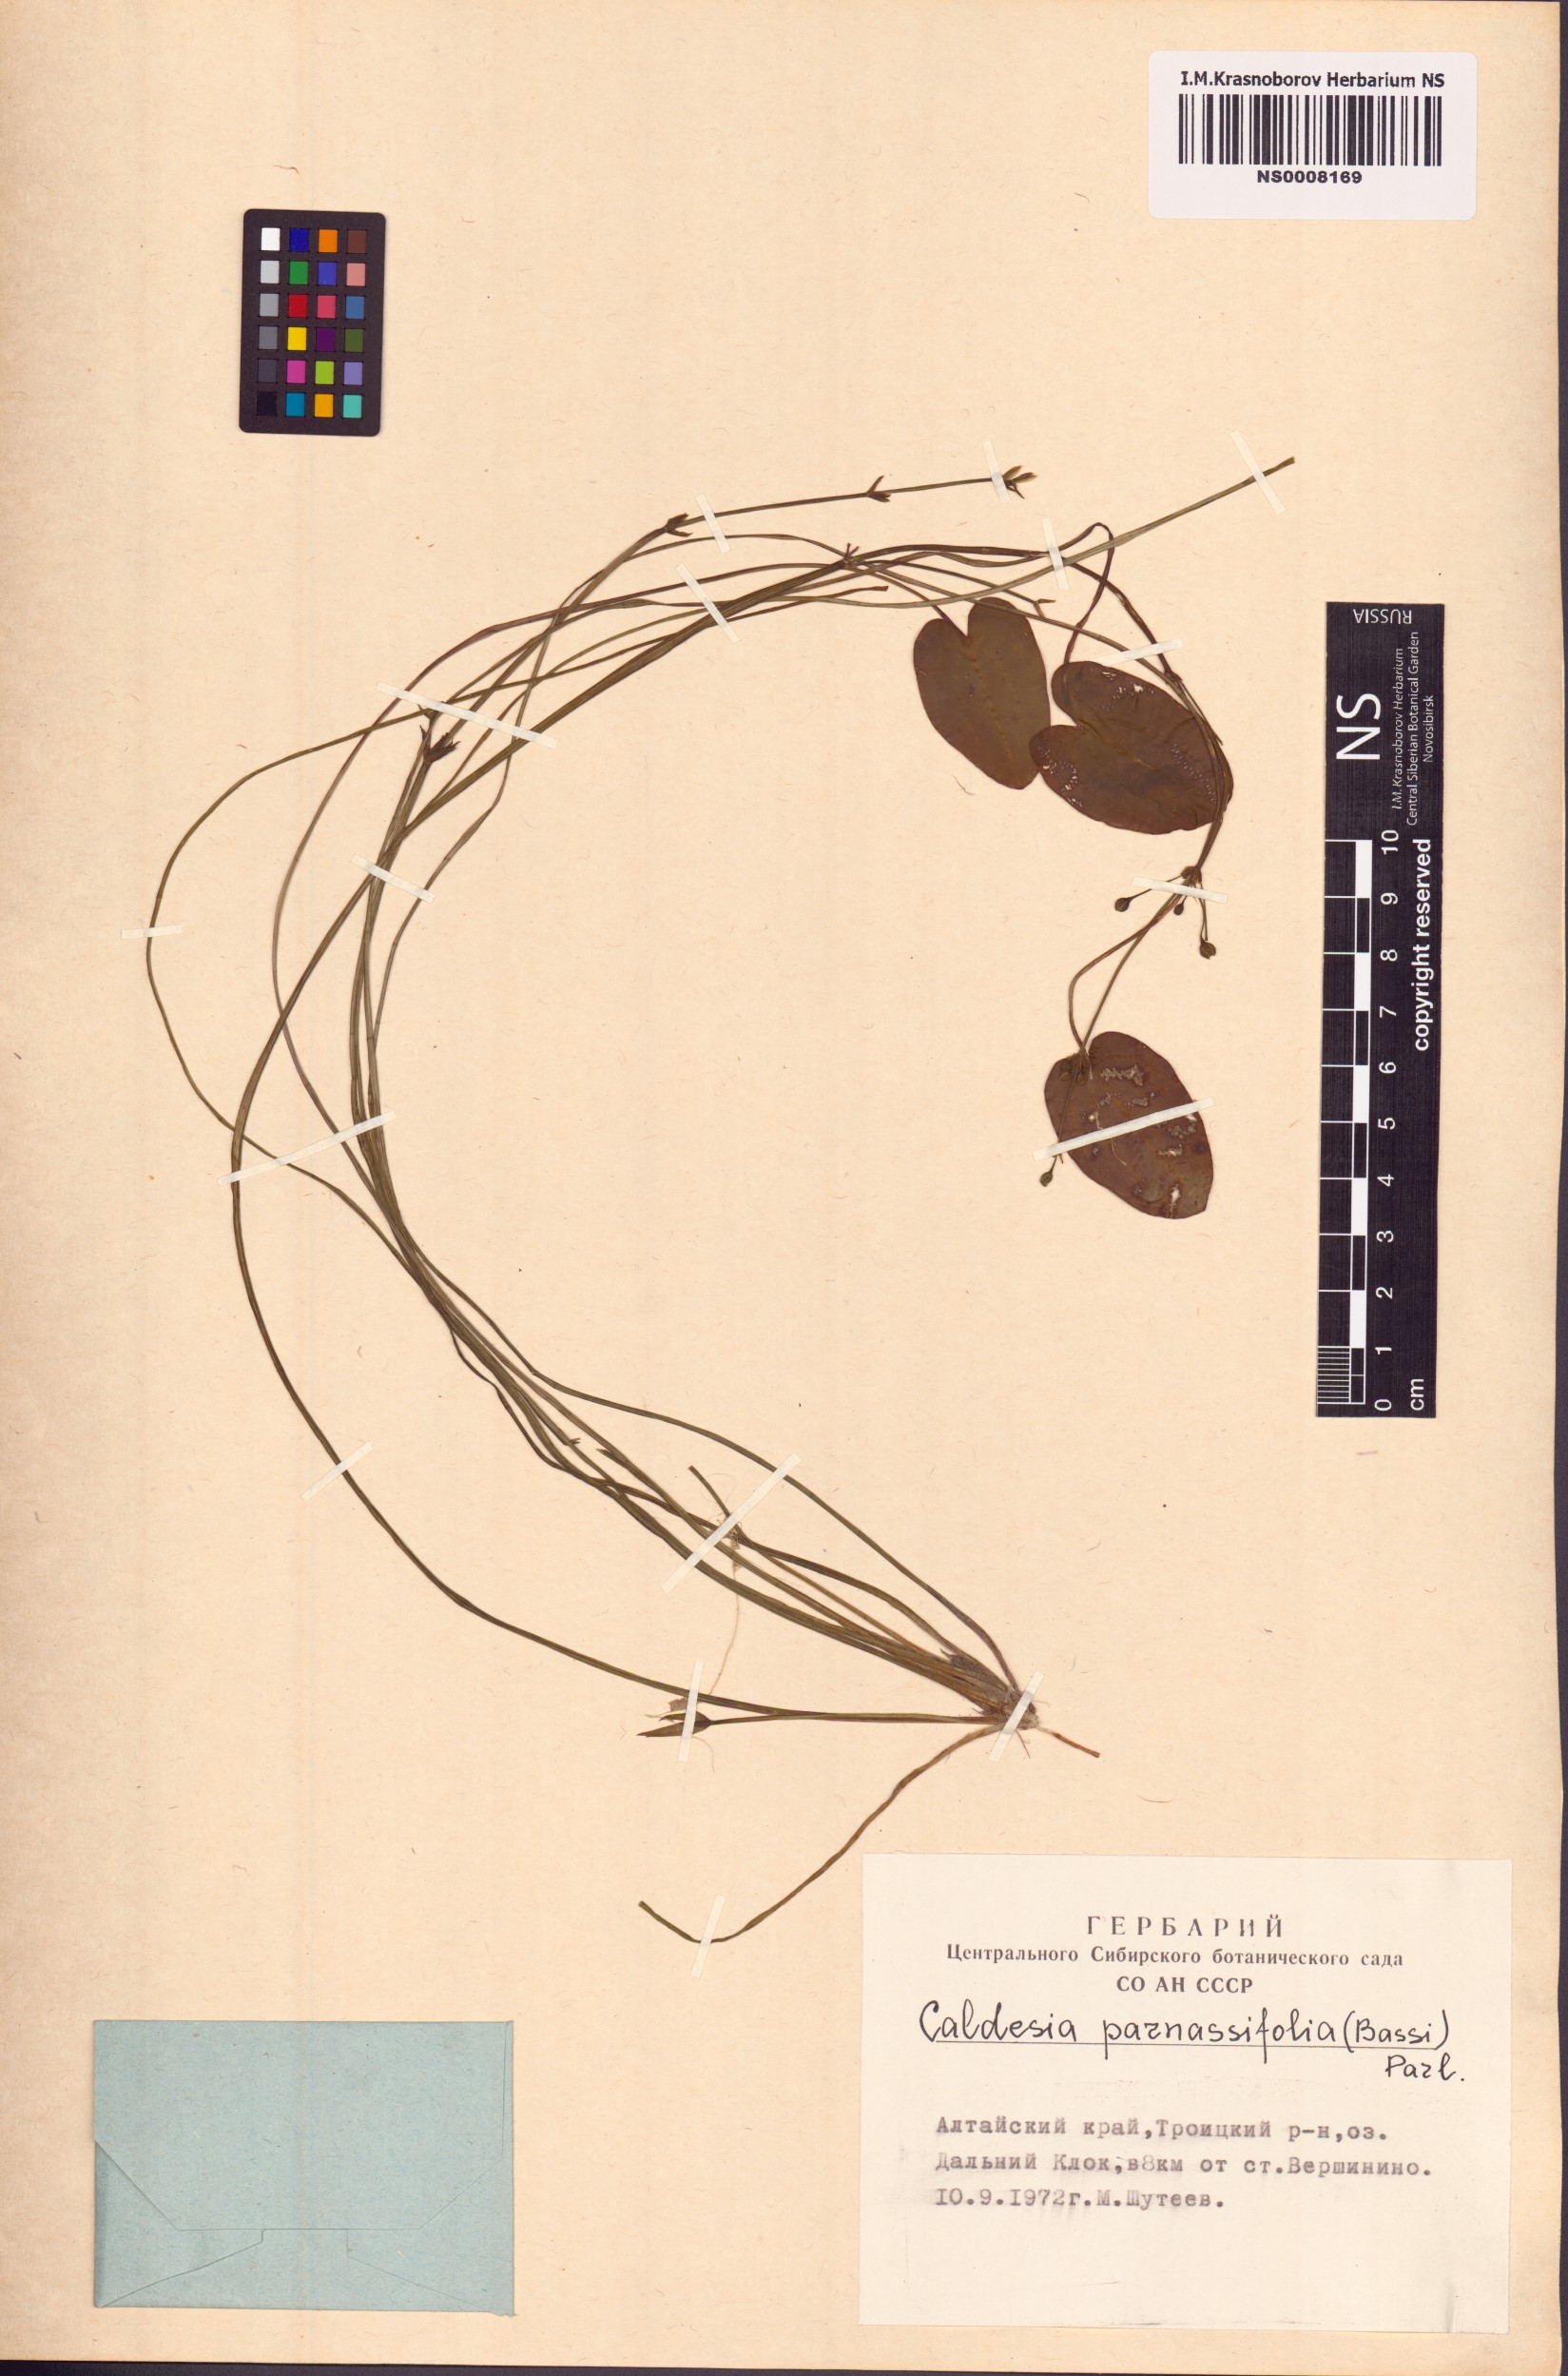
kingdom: Plantae
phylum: Tracheophyta
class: Liliopsida
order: Alismatales
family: Alismataceae
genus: Caldesia
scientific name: Caldesia parnassifolia
